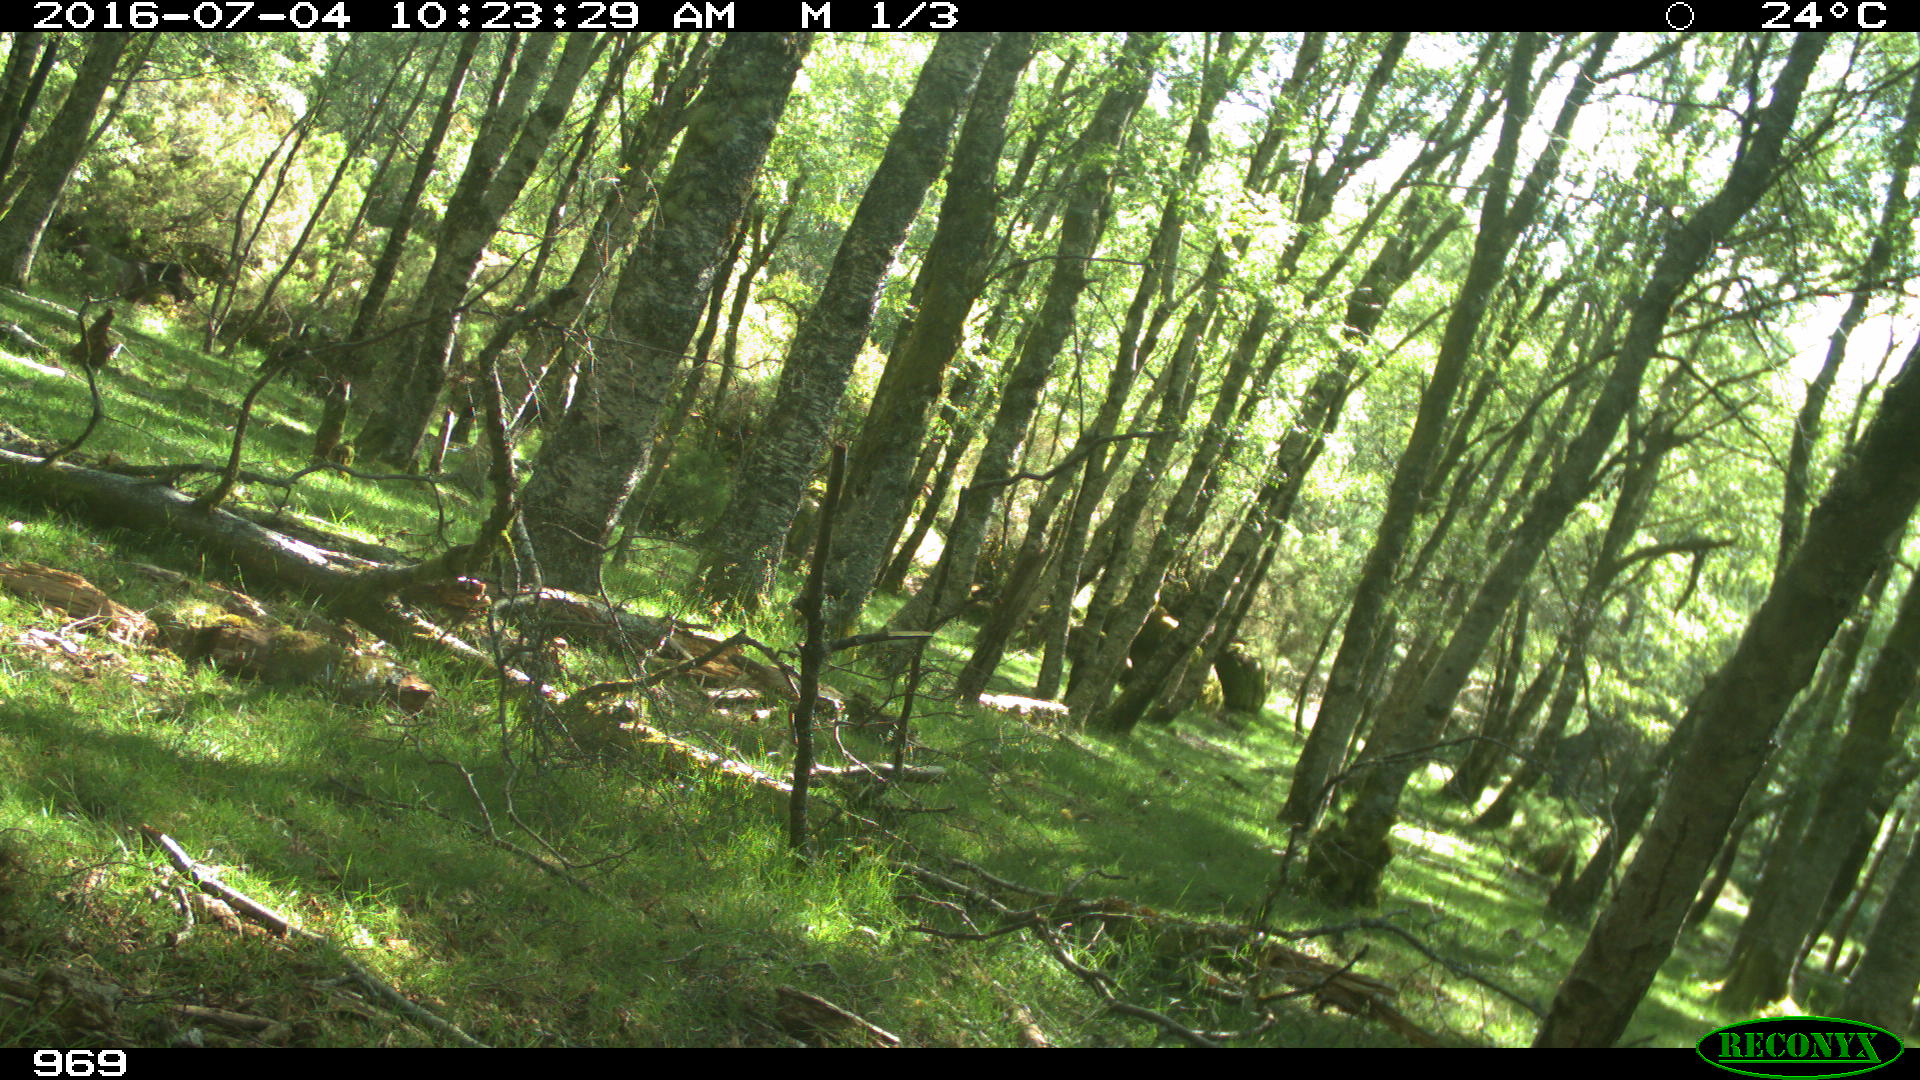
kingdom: Animalia
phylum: Chordata
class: Mammalia
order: Perissodactyla
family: Equidae
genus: Equus
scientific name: Equus caballus
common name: Horse
